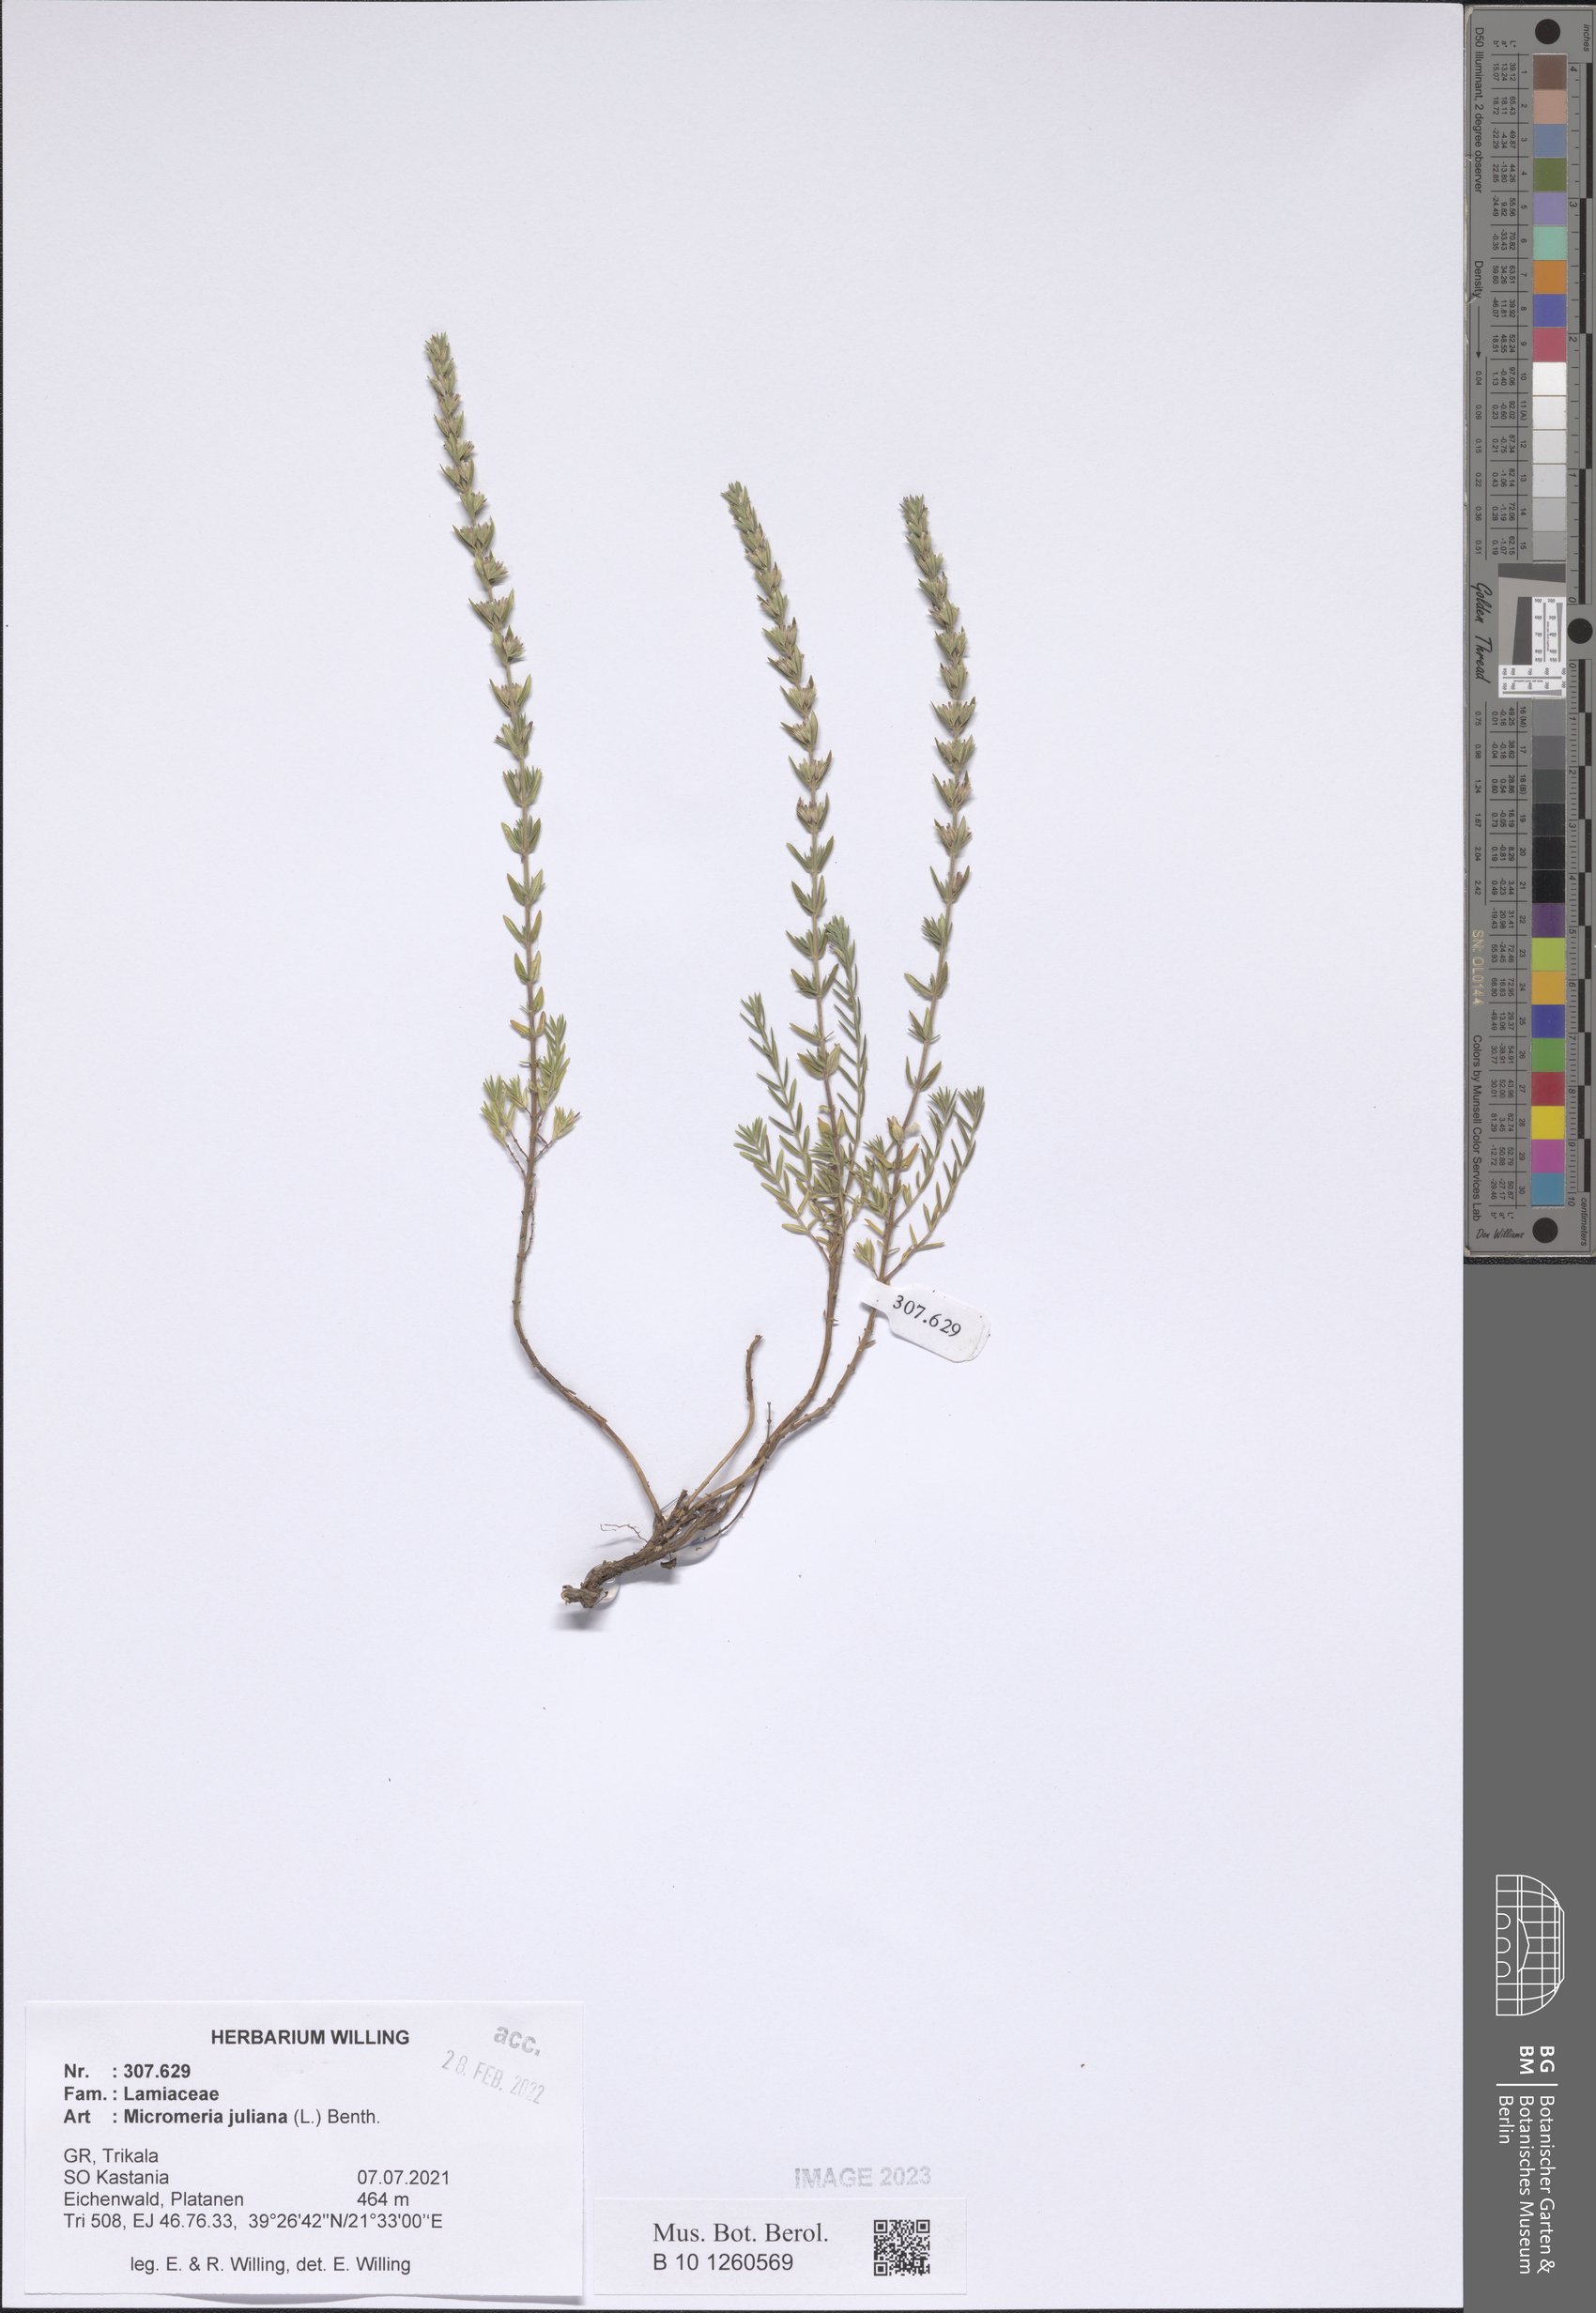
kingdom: Plantae
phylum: Tracheophyta
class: Magnoliopsida
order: Lamiales
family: Lamiaceae
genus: Micromeria
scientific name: Micromeria juliana
